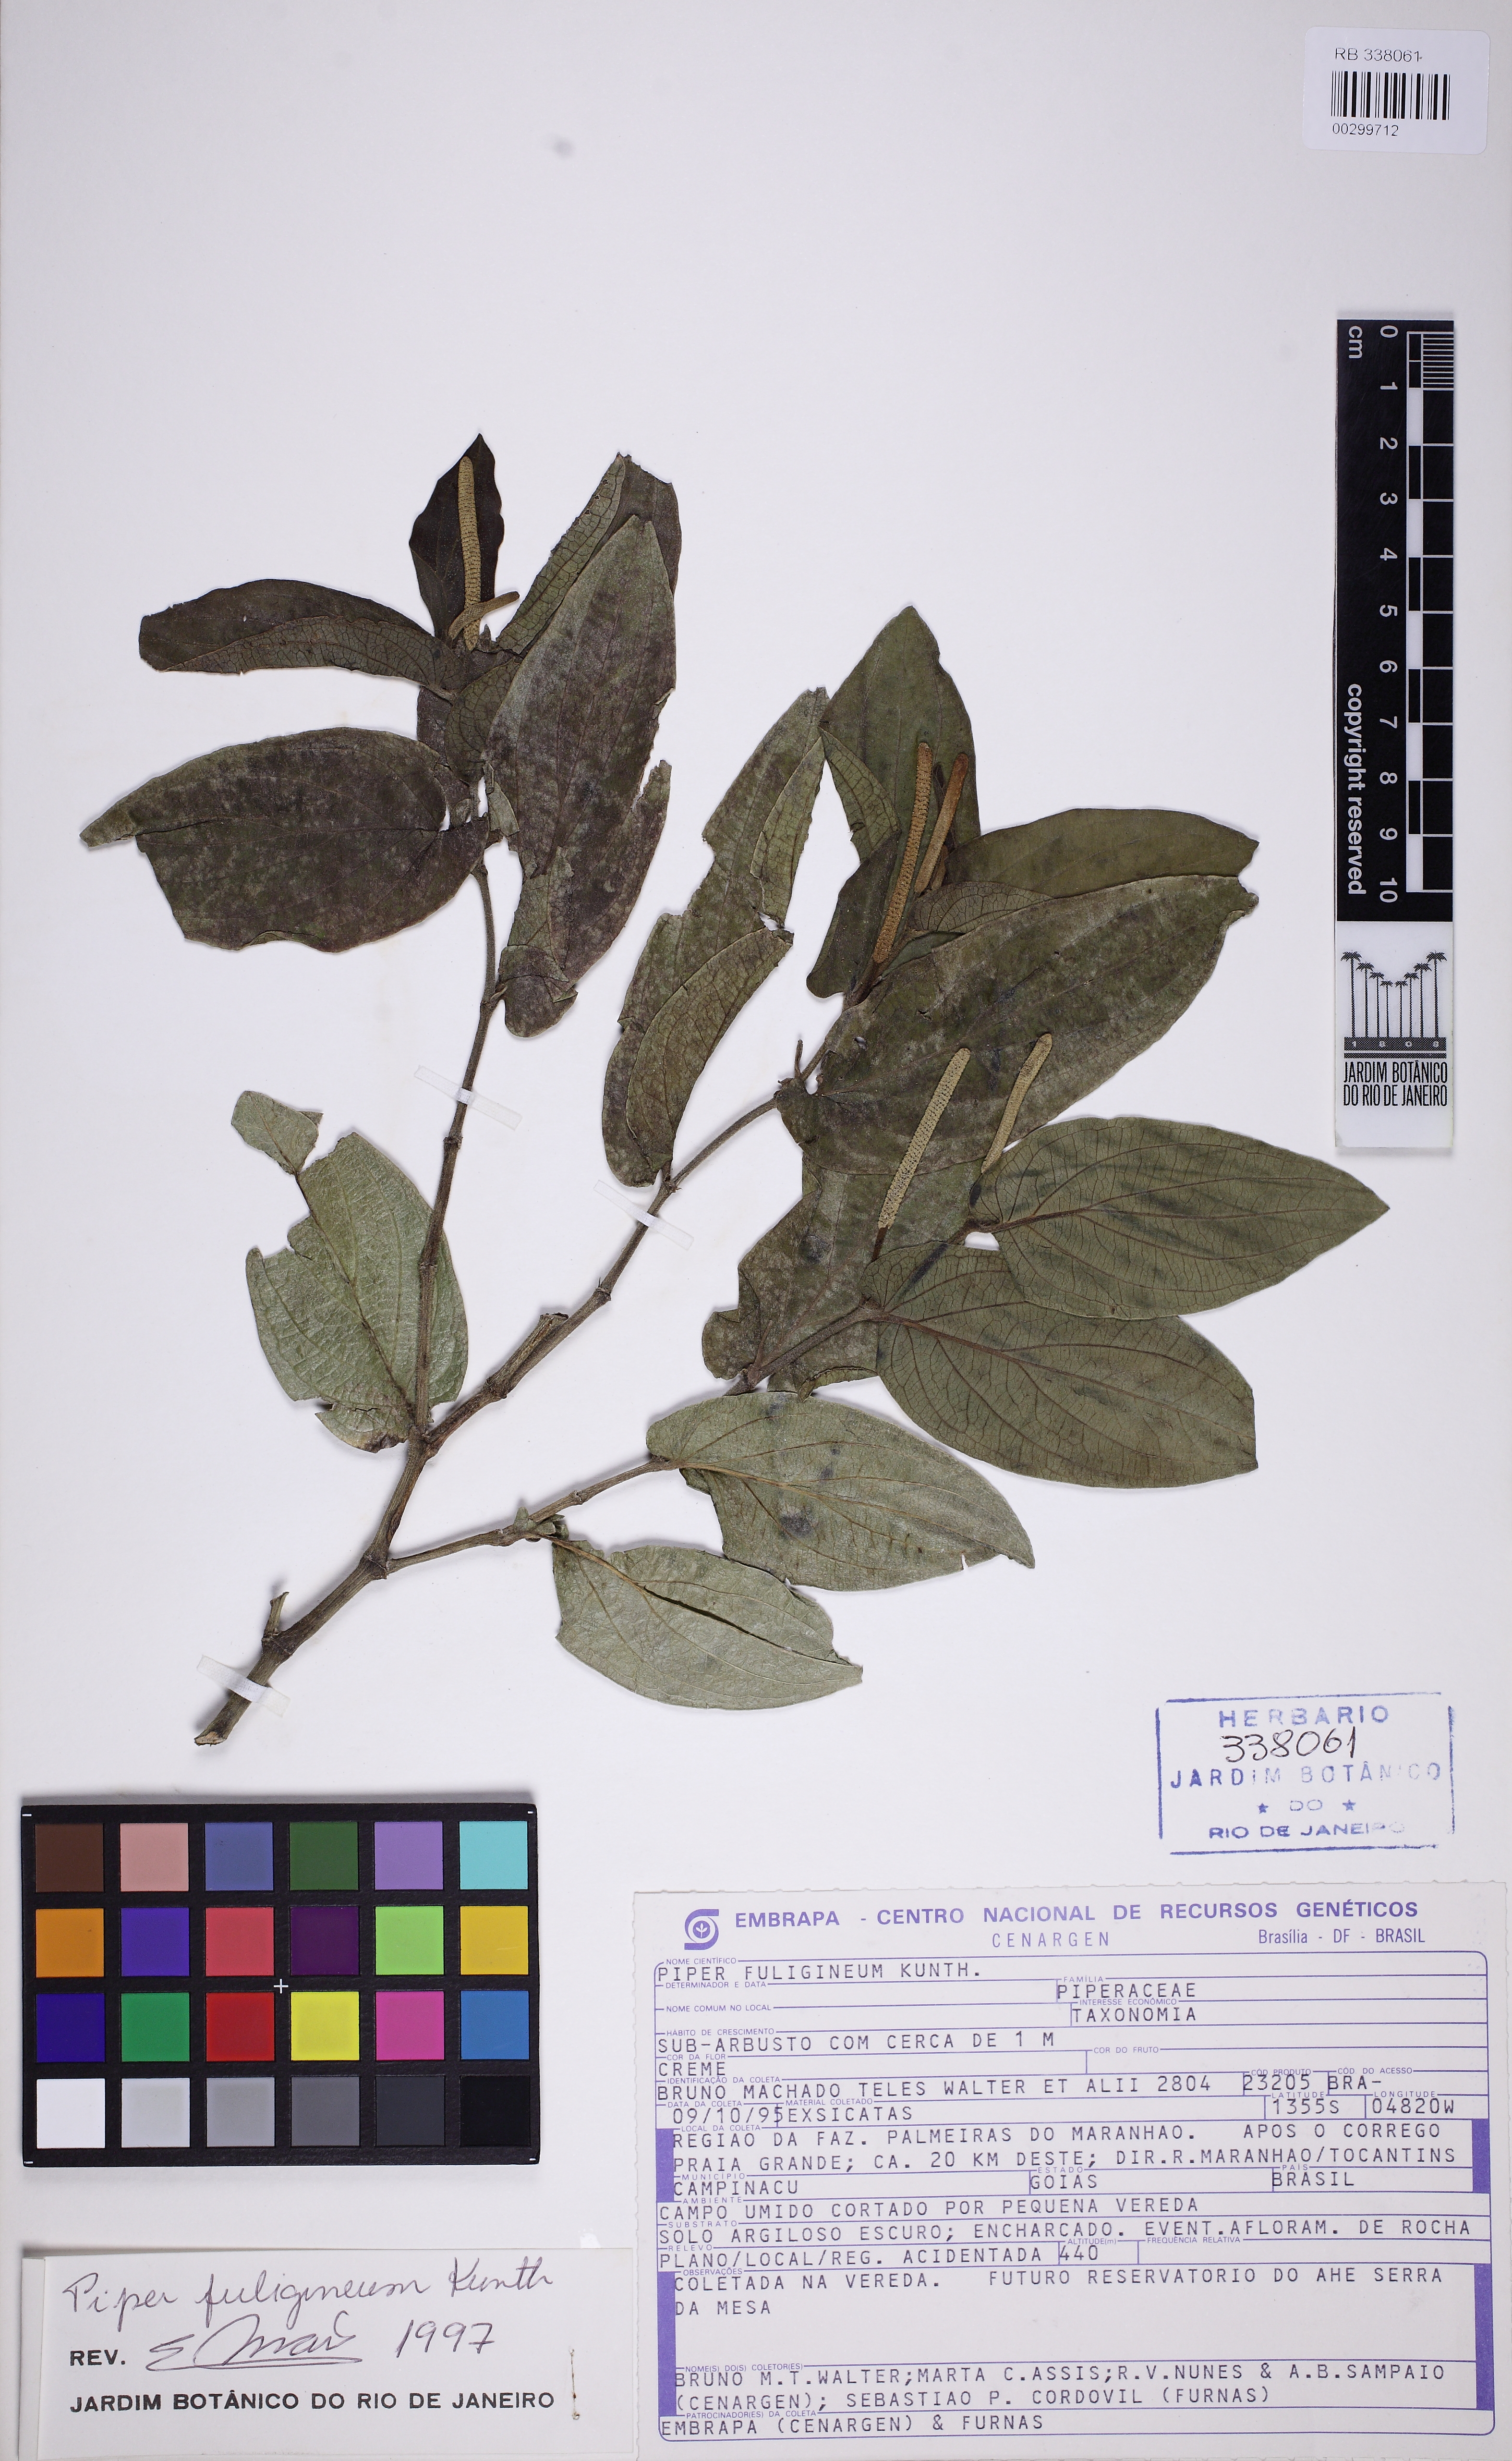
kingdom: Plantae
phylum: Tracheophyta
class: Magnoliopsida
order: Piperales
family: Piperaceae
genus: Piper
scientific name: Piper fuligineum
